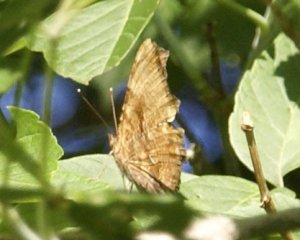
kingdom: Animalia
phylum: Arthropoda
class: Insecta
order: Lepidoptera
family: Nymphalidae
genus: Polygonia
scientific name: Polygonia comma
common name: Eastern Comma
